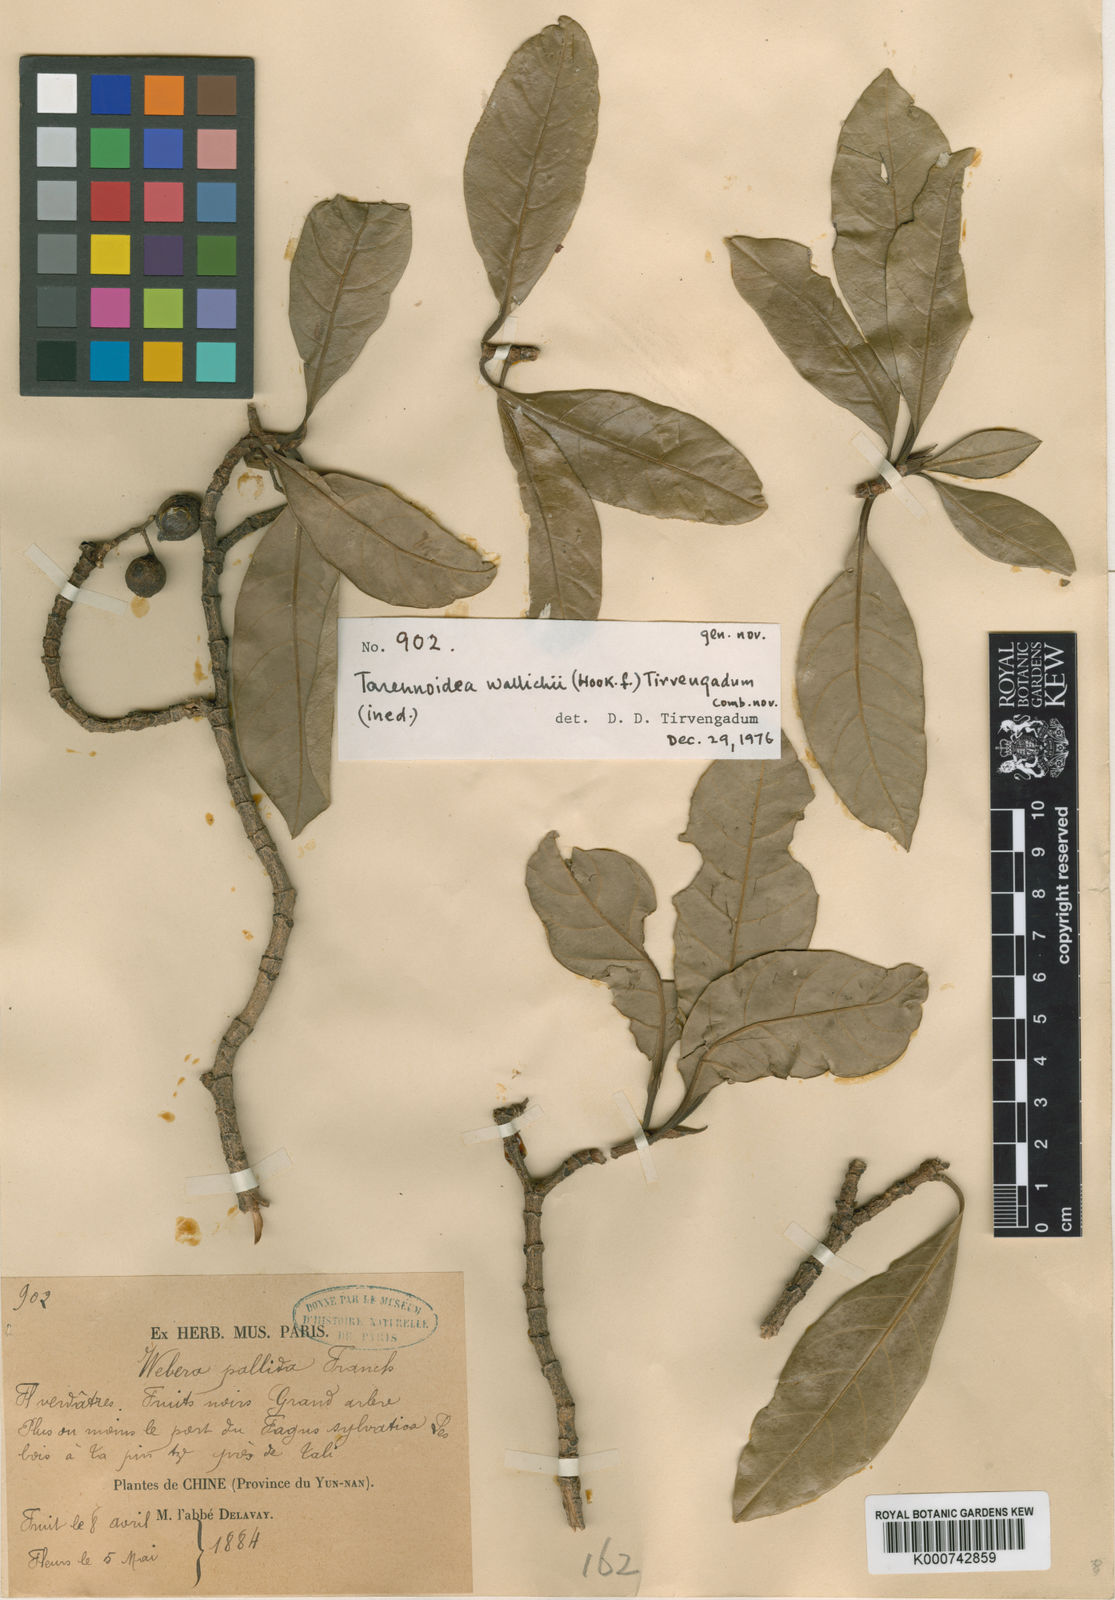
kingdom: Plantae
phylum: Tracheophyta
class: Magnoliopsida
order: Gentianales
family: Rubiaceae
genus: Tarennoidea
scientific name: Tarennoidea
